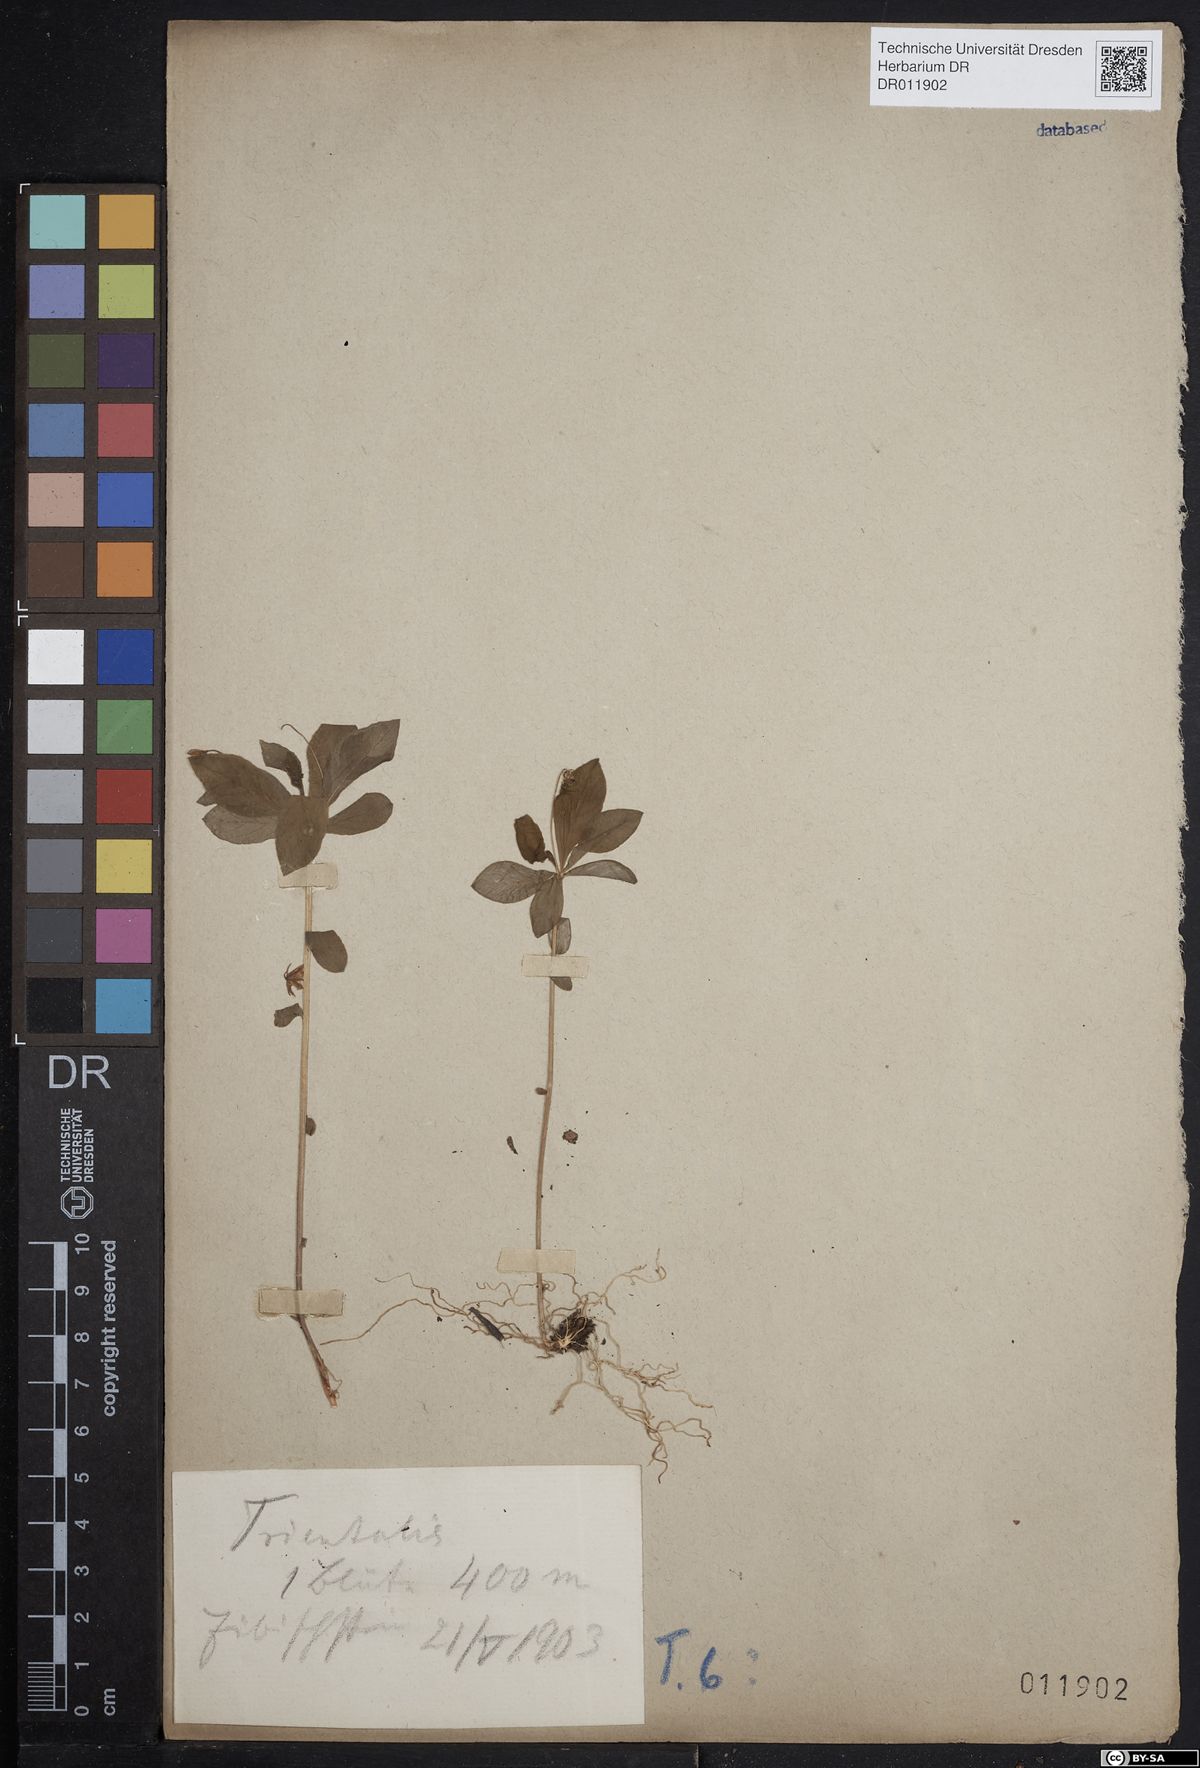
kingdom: Plantae
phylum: Tracheophyta
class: Magnoliopsida
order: Ericales
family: Primulaceae
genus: Lysimachia
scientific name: Lysimachia europaea
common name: Arctic starflower
